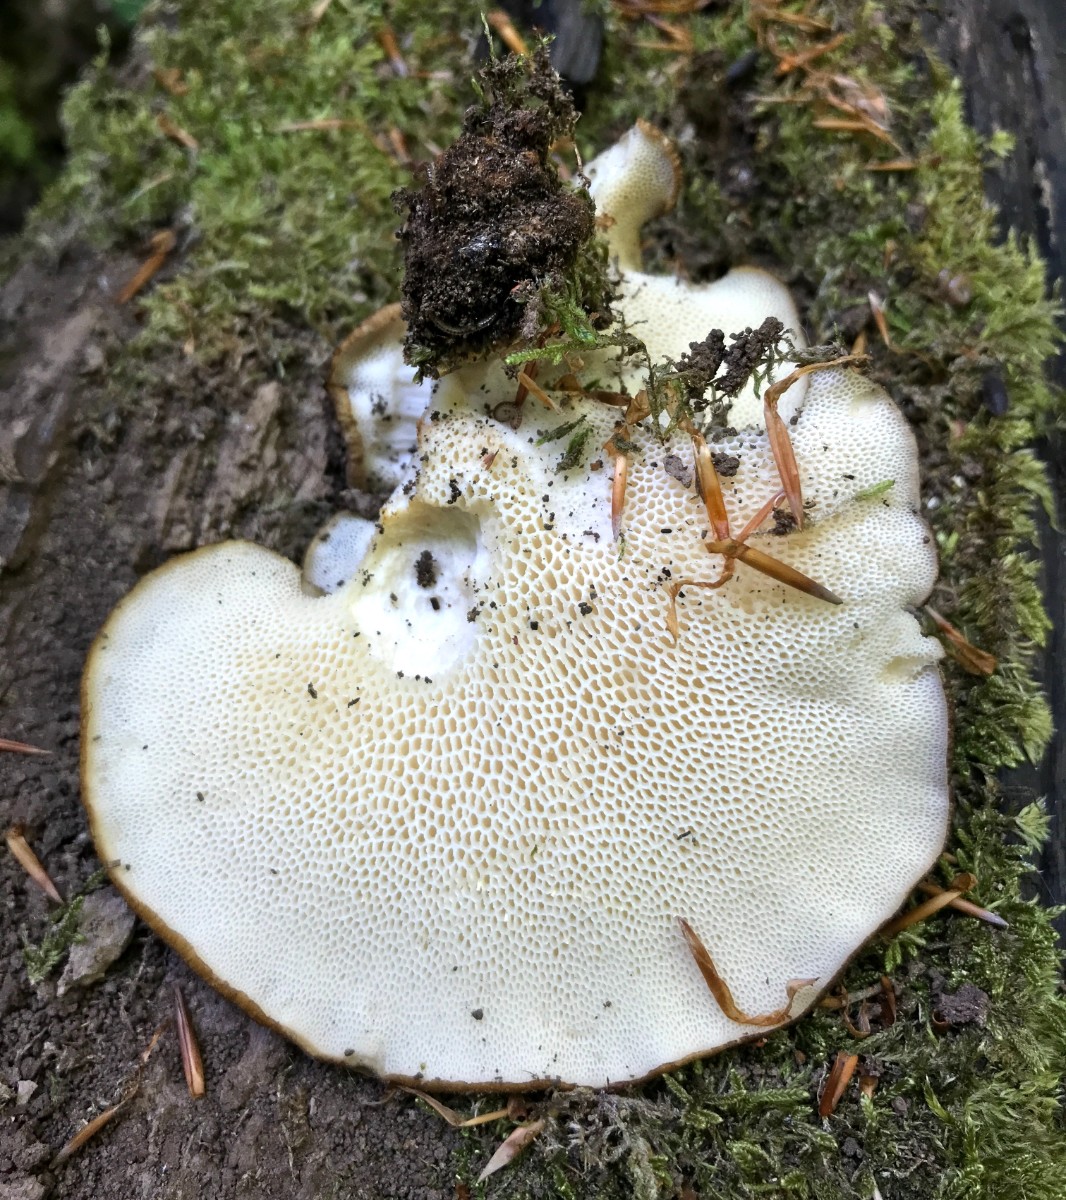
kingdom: Fungi
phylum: Basidiomycota
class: Agaricomycetes
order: Polyporales
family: Polyporaceae
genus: Cerioporus
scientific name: Cerioporus squamosus
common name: skællet stilkporesvamp
